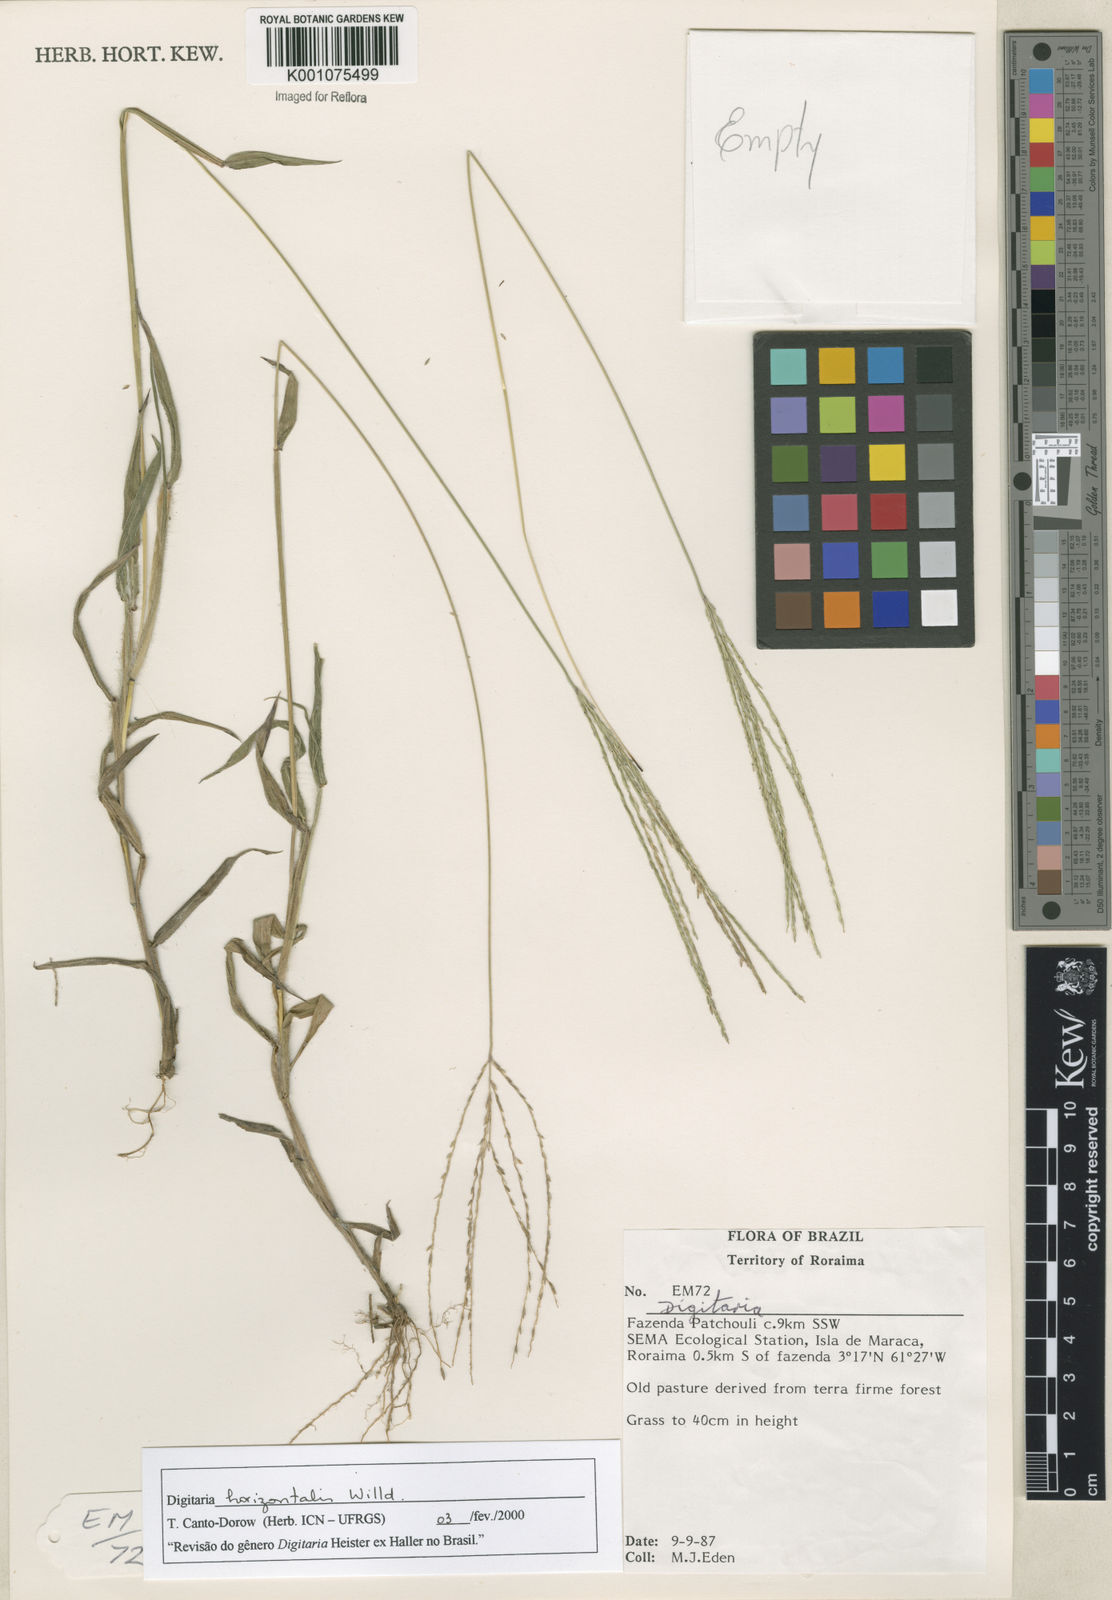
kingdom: Plantae
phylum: Tracheophyta
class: Liliopsida
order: Poales
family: Poaceae
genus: Digitaria
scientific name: Digitaria horizontalis
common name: Jamaican crabgrass
